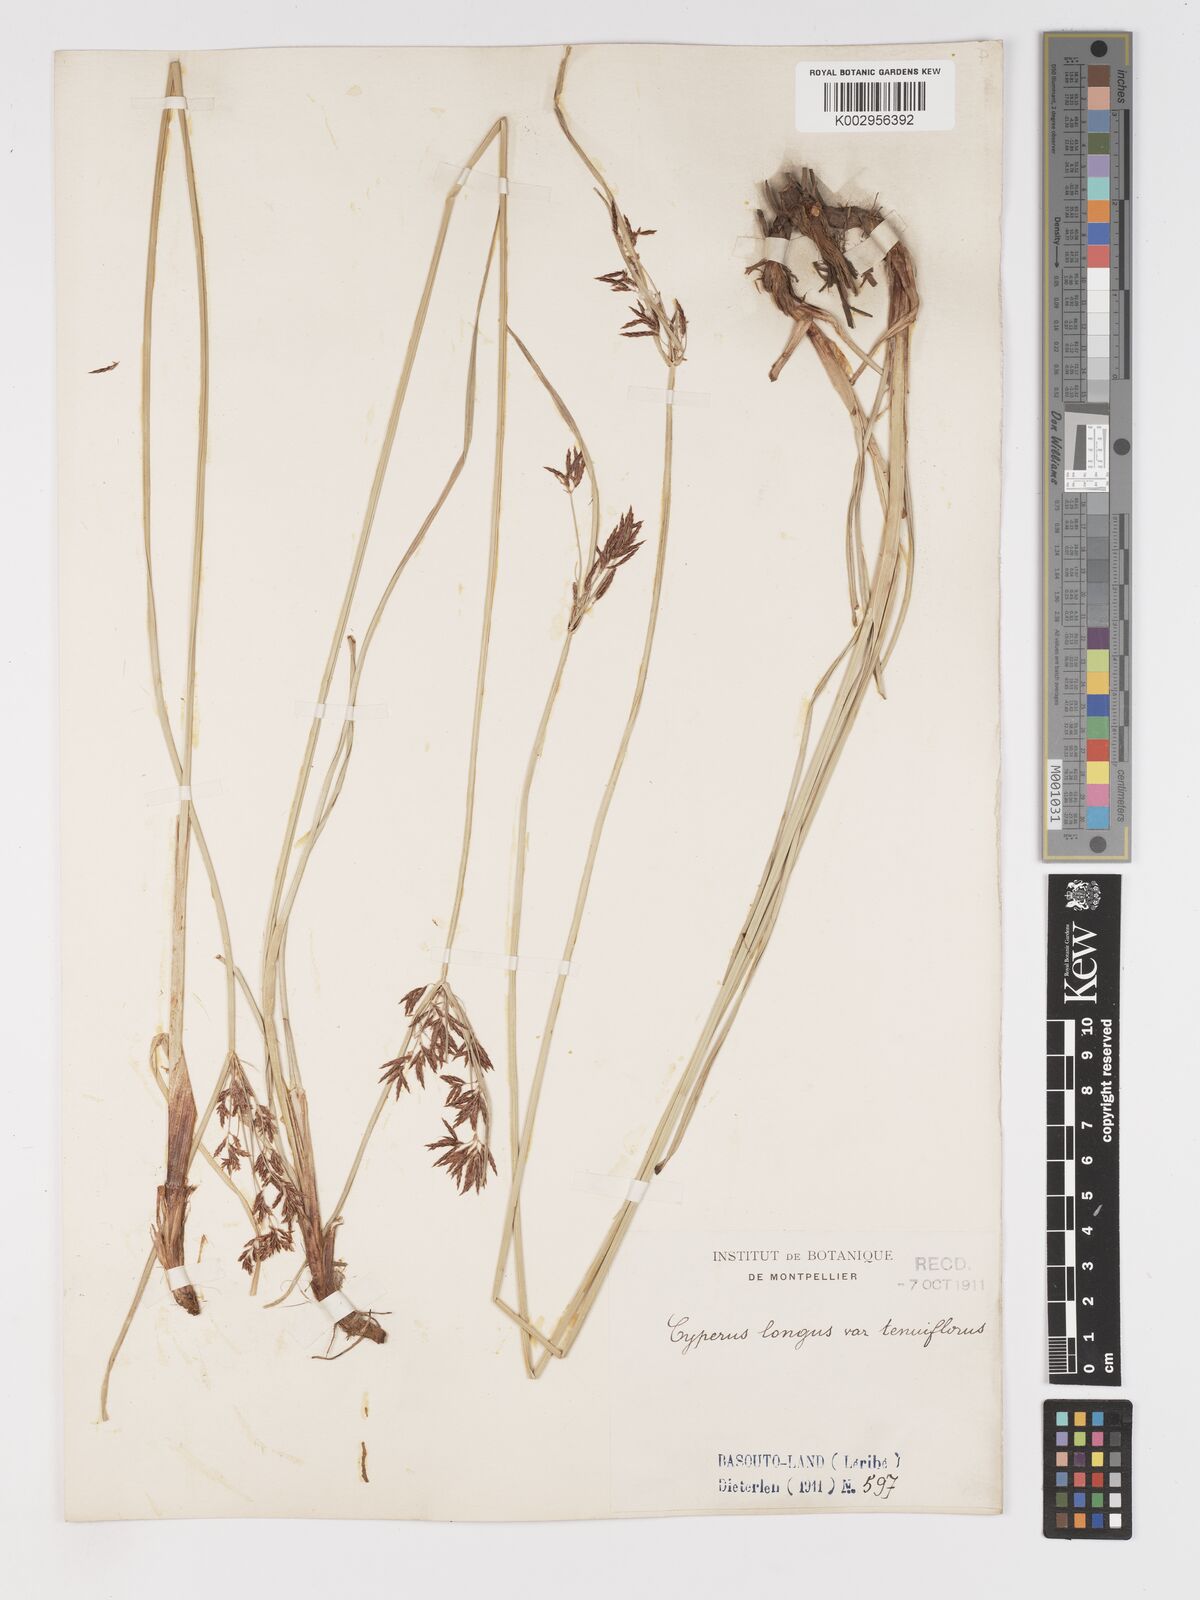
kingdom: Plantae
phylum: Tracheophyta
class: Liliopsida
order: Poales
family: Cyperaceae
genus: Cyperus
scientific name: Cyperus longus
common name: Galingale
